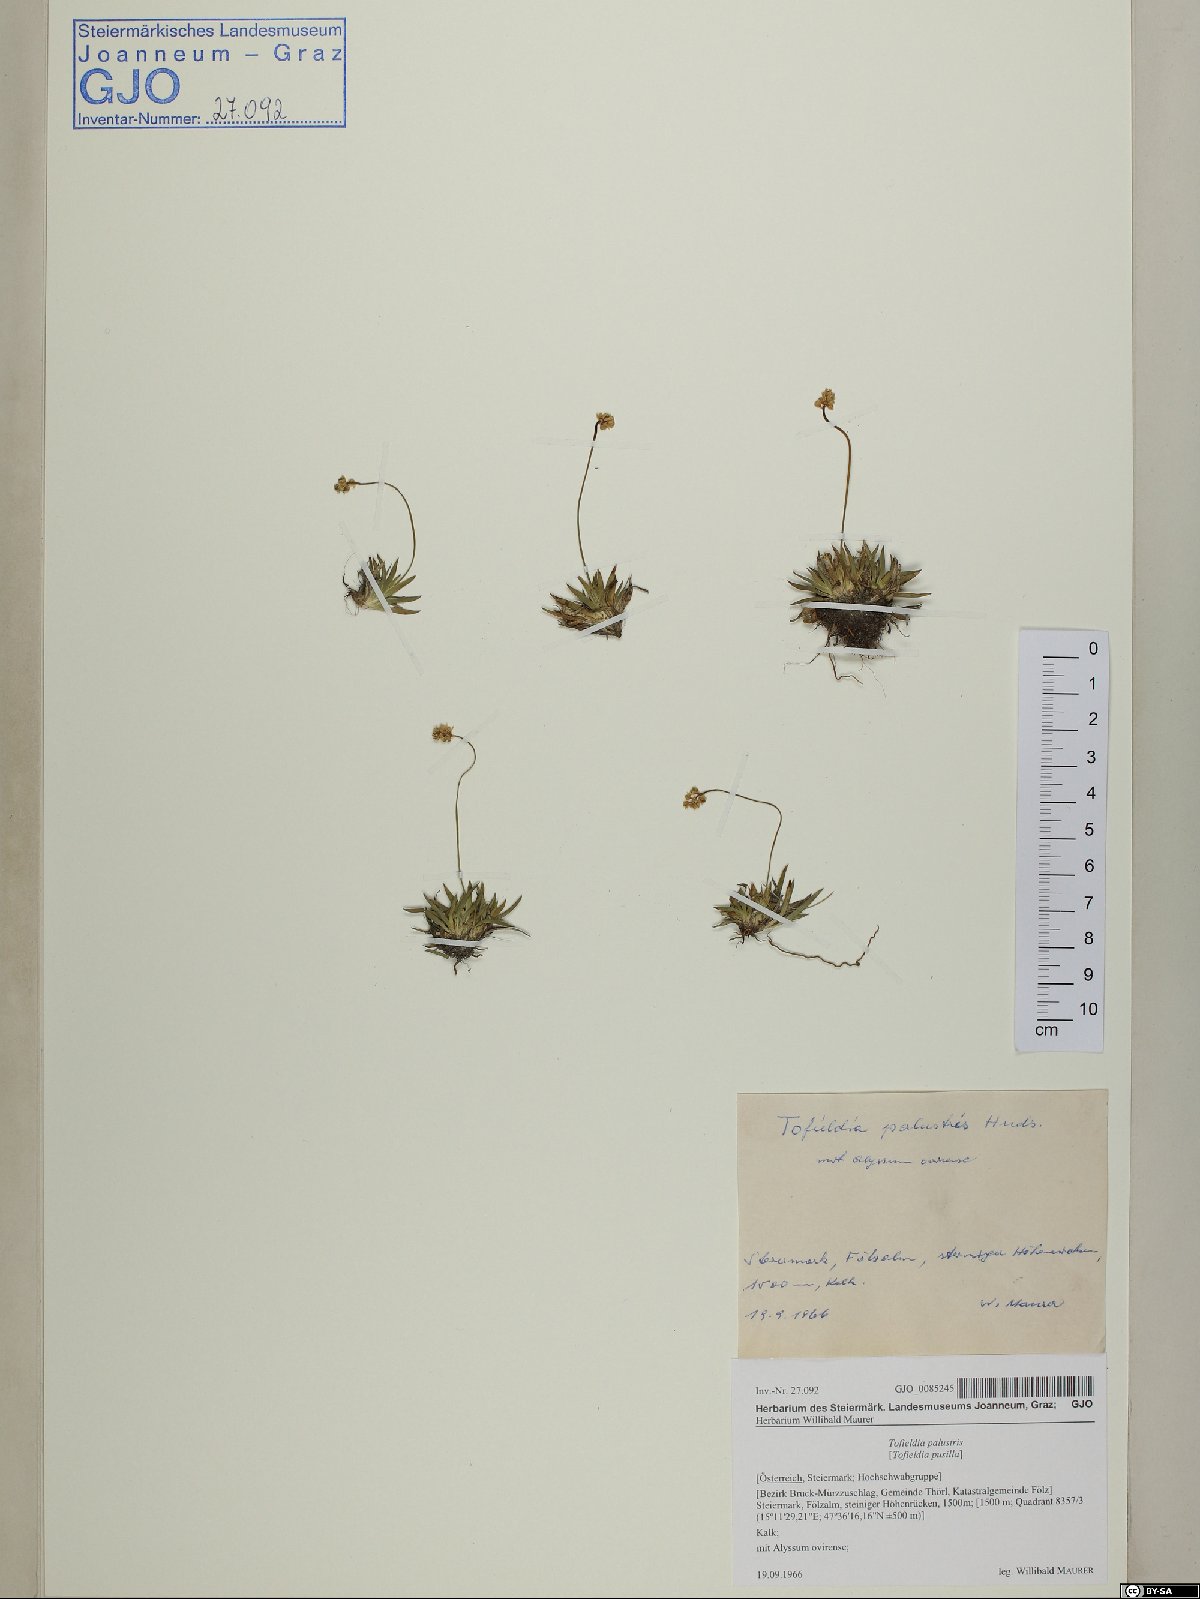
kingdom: Plantae
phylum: Tracheophyta
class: Liliopsida
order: Alismatales
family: Tofieldiaceae
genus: Tofieldia
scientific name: Tofieldia calyculata
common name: German-asphodel
